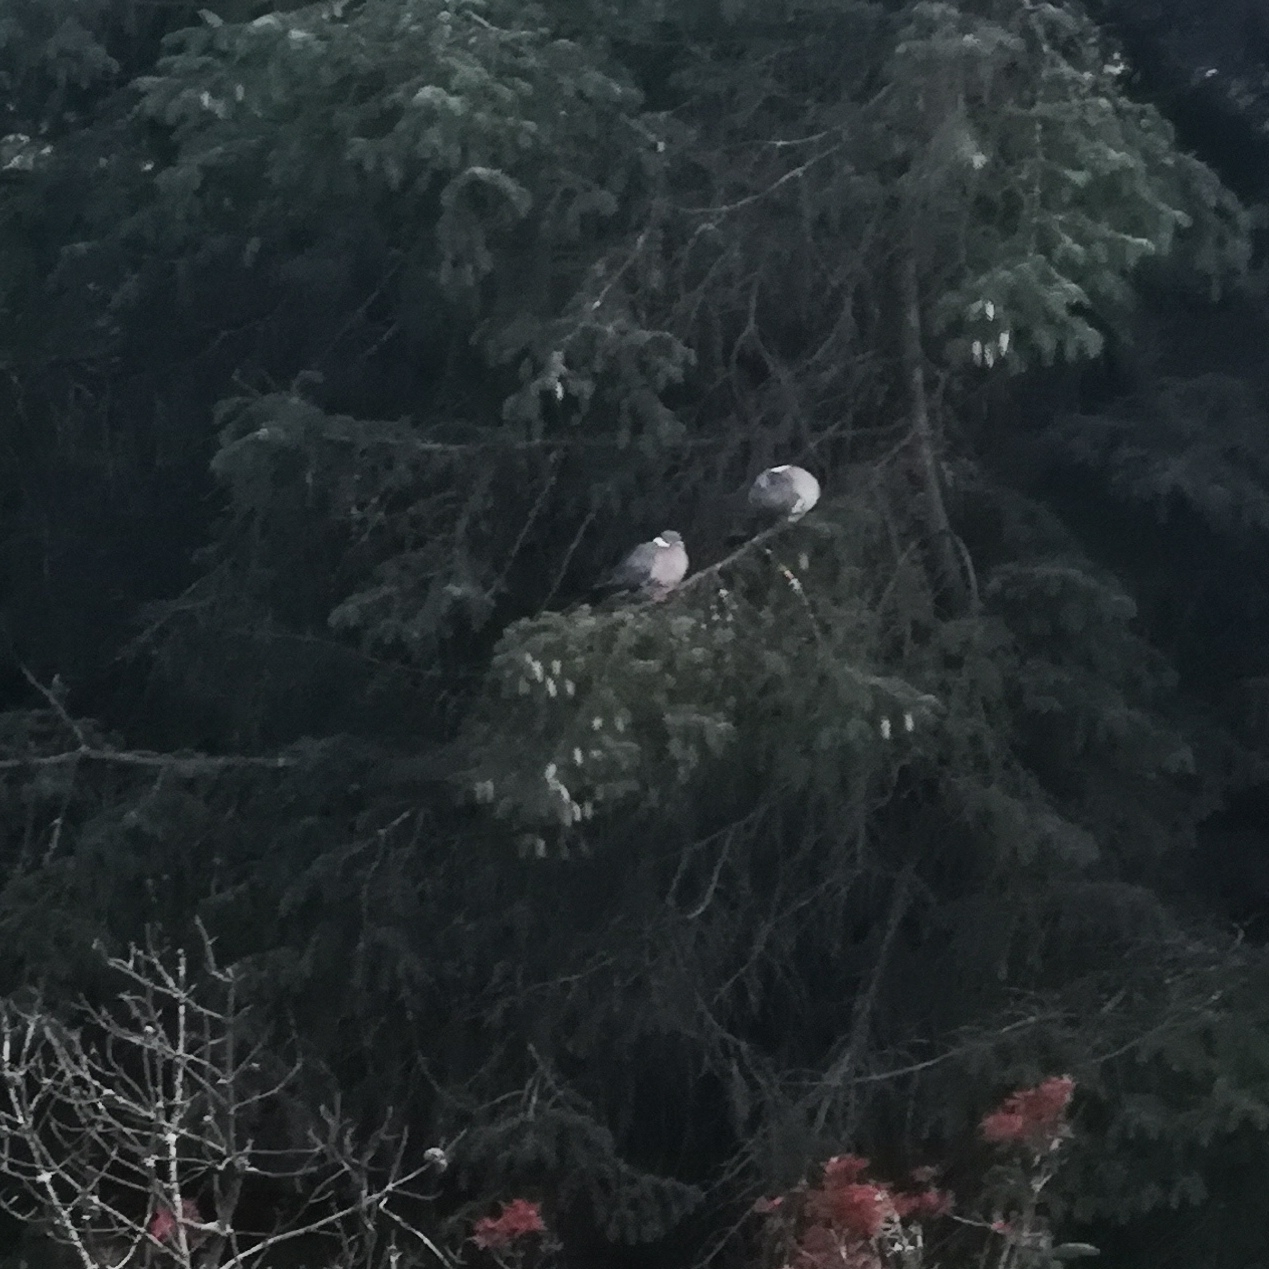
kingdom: Animalia
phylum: Chordata
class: Aves
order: Columbiformes
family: Columbidae
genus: Columba
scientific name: Columba palumbus
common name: Ringdue
